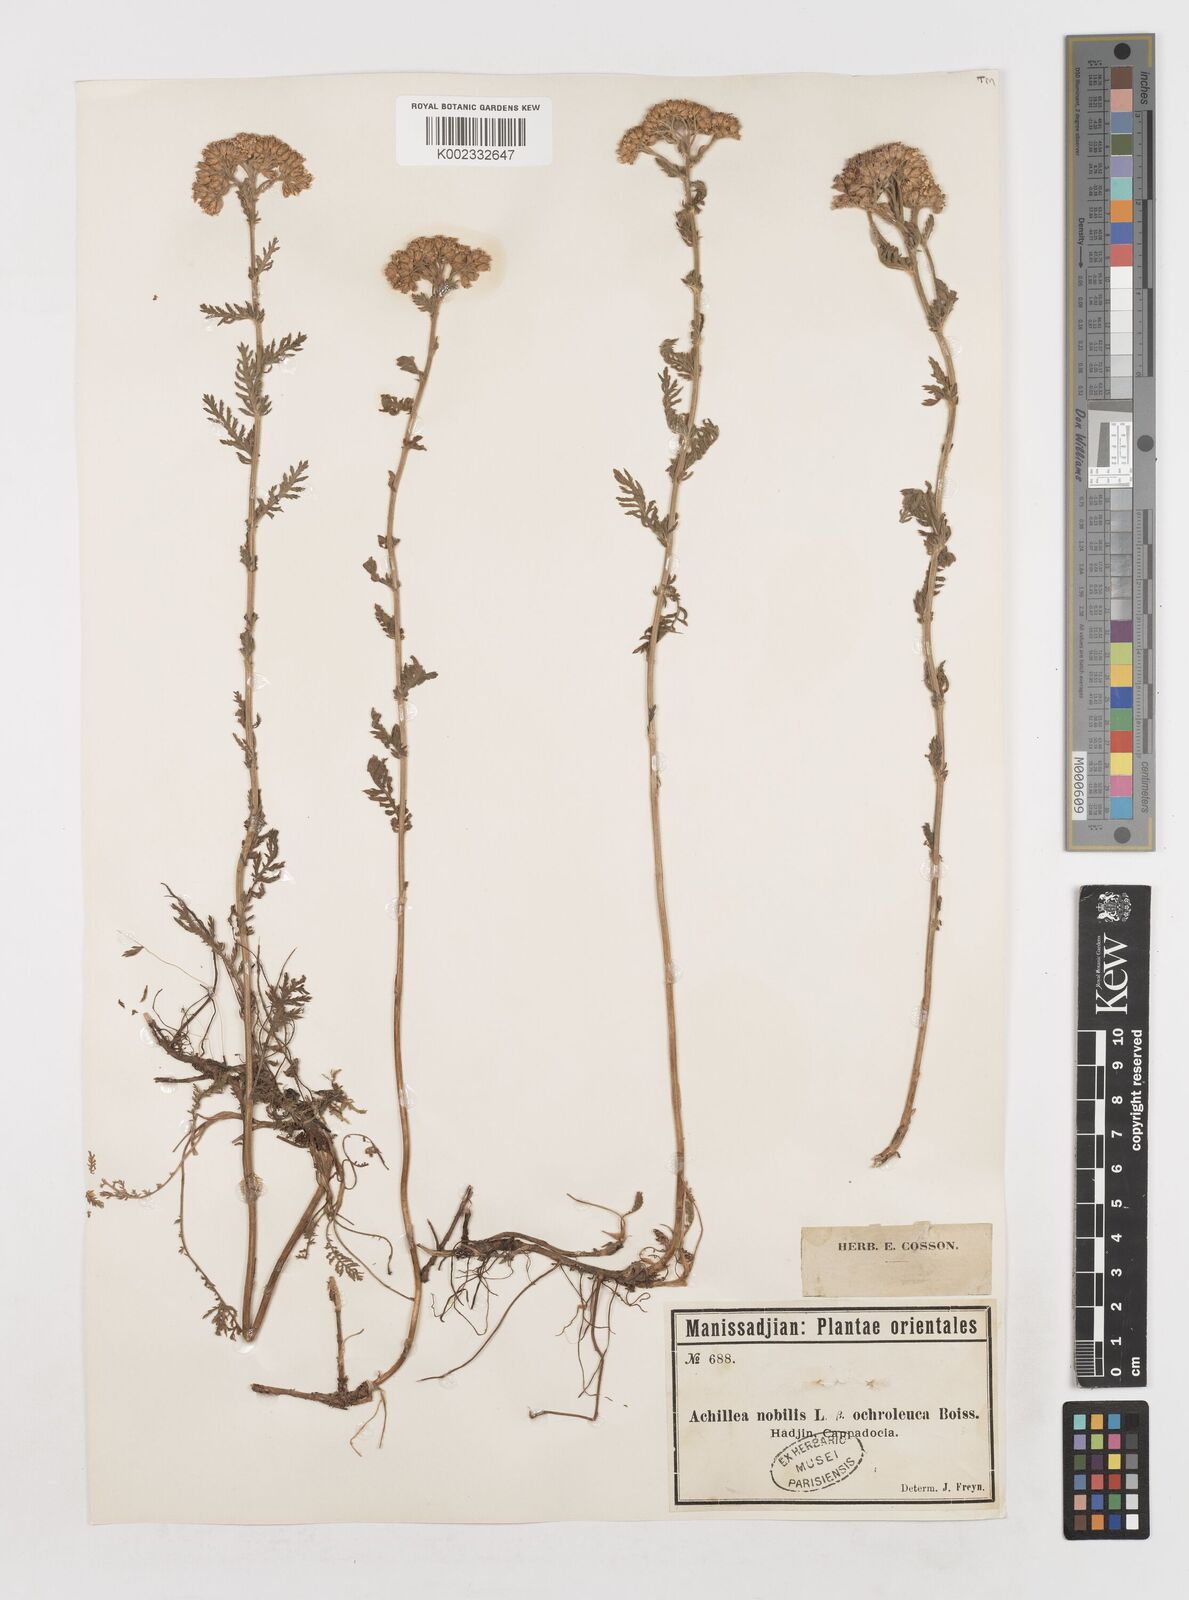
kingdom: Plantae
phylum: Tracheophyta
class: Magnoliopsida
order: Asterales
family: Asteraceae
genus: Achillea
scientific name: Achillea nobilis
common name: Noble yarrow
